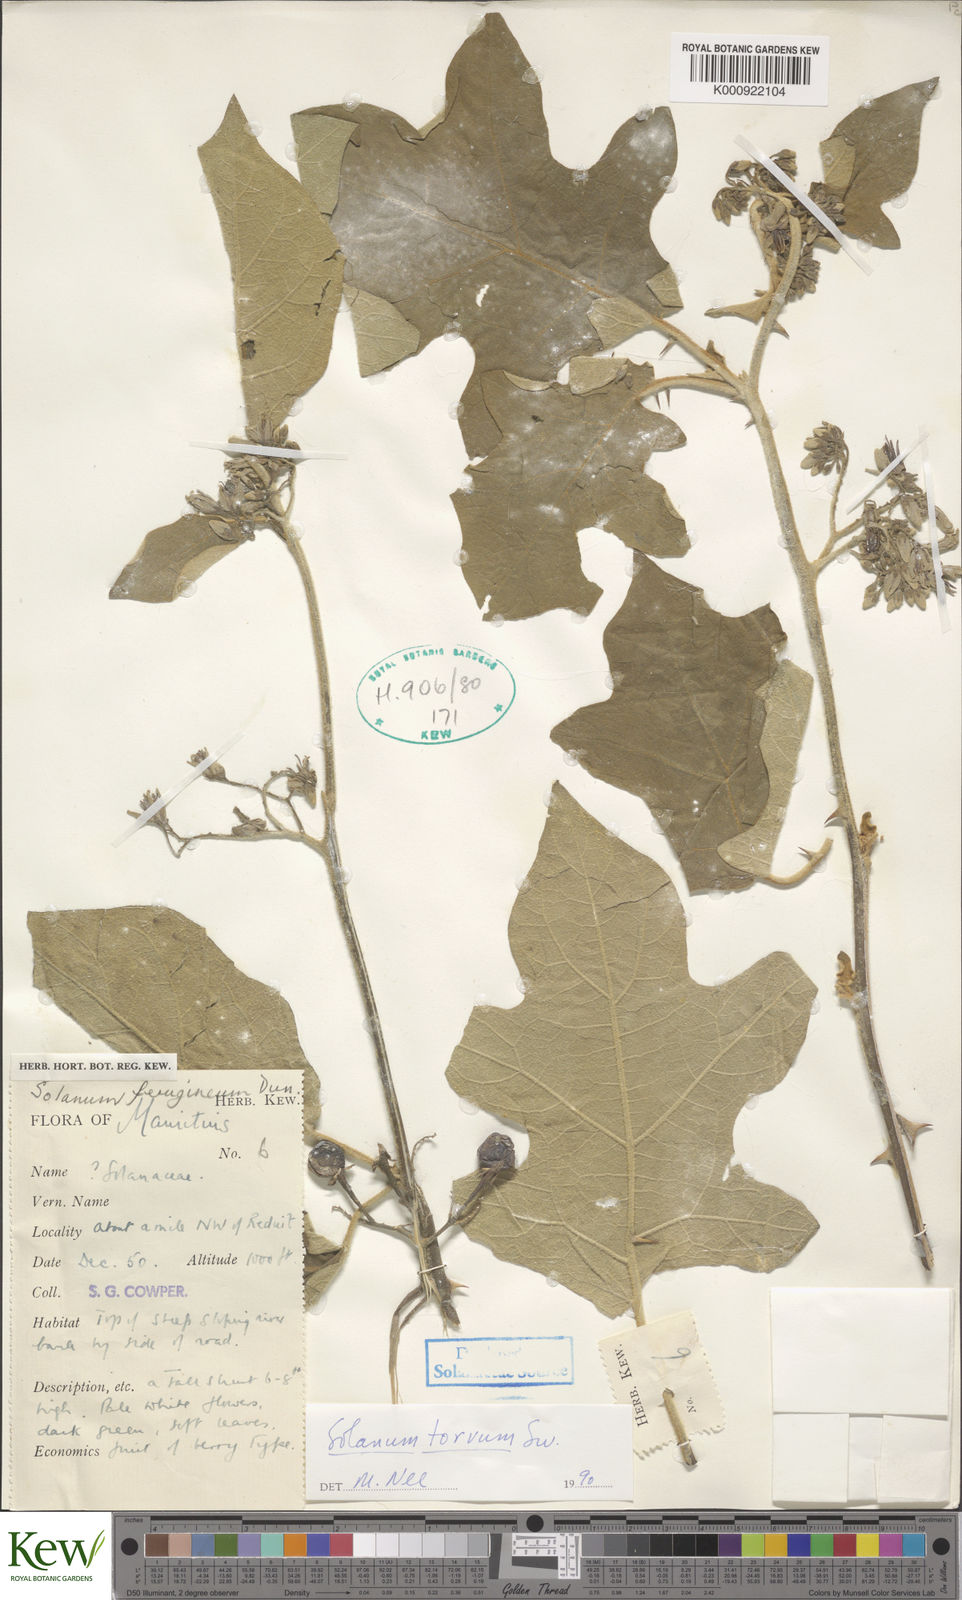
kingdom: Plantae
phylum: Tracheophyta
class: Magnoliopsida
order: Solanales
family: Solanaceae
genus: Solanum
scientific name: Solanum torvum
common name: Turkey berry
